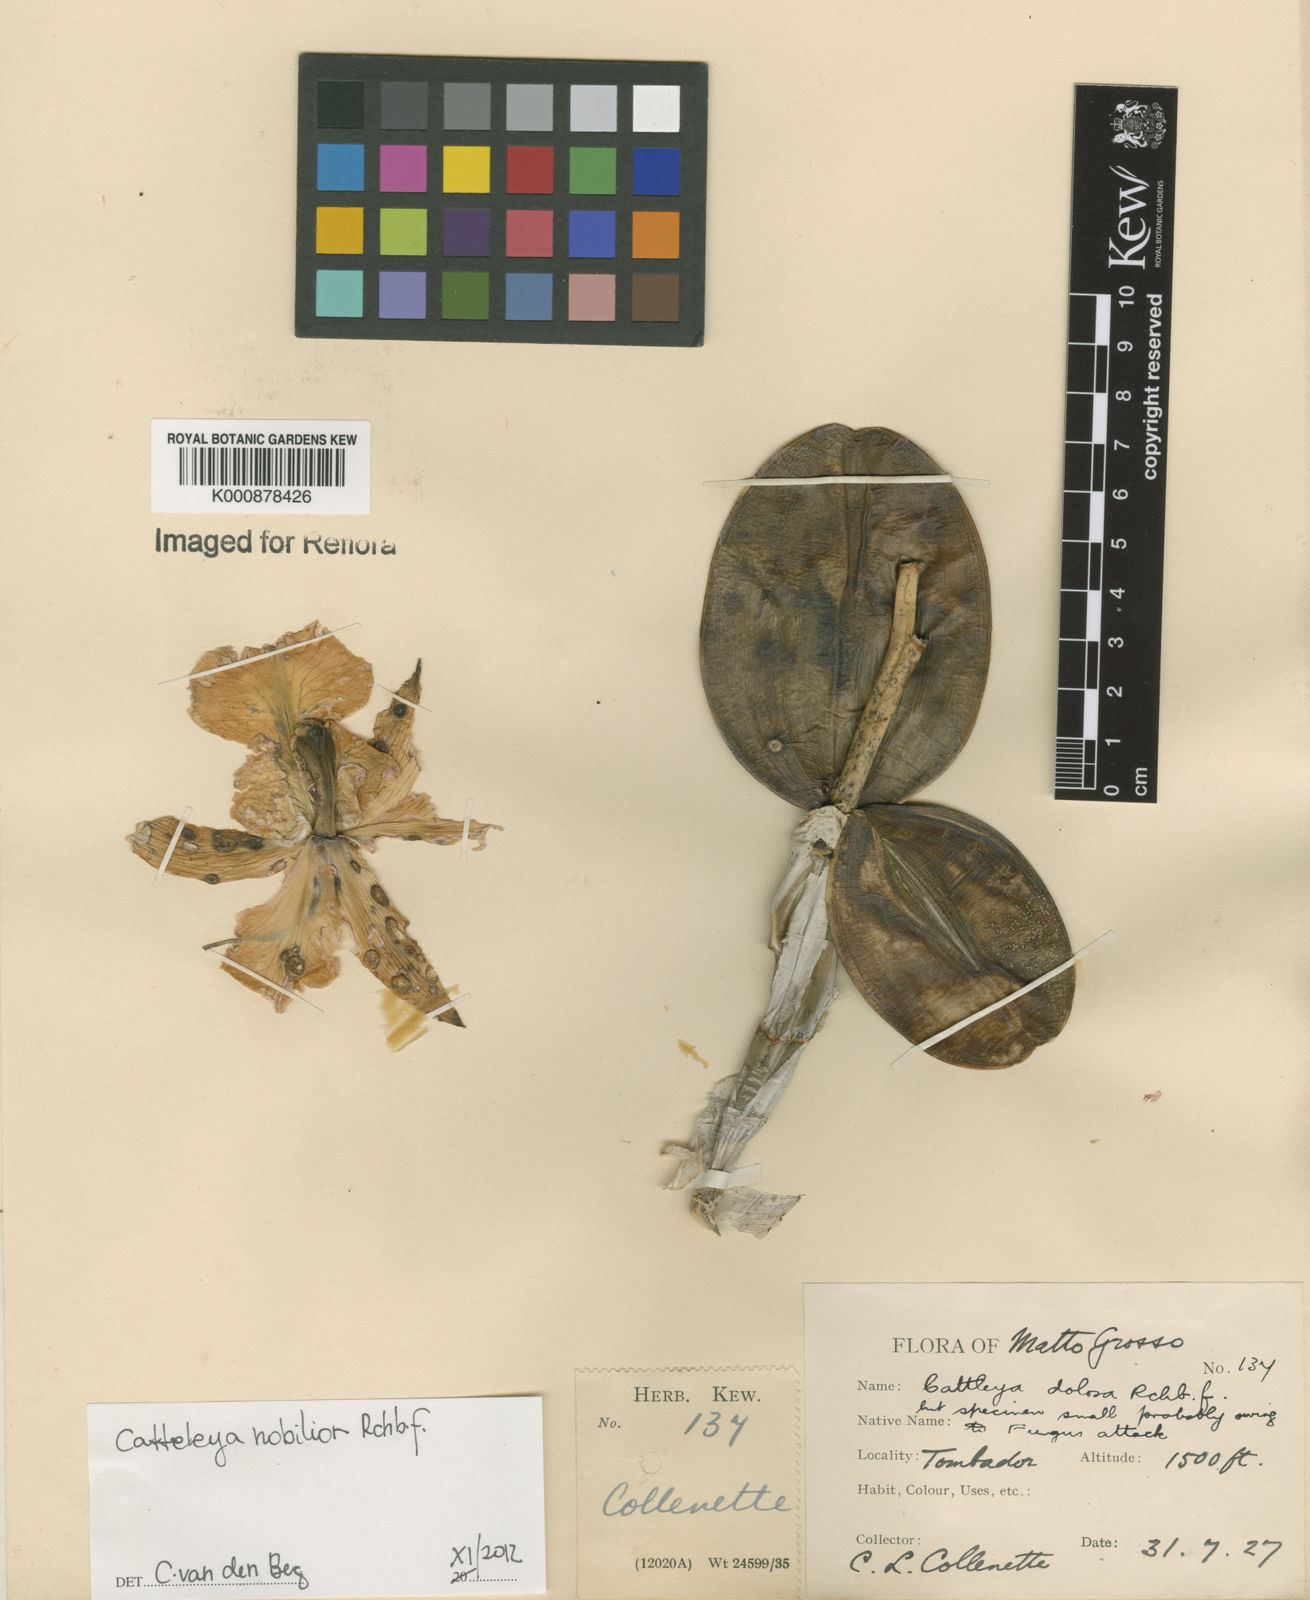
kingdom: Plantae
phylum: Tracheophyta
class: Liliopsida
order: Asparagales
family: Orchidaceae
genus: Cattleya
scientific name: Cattleya nobilior
